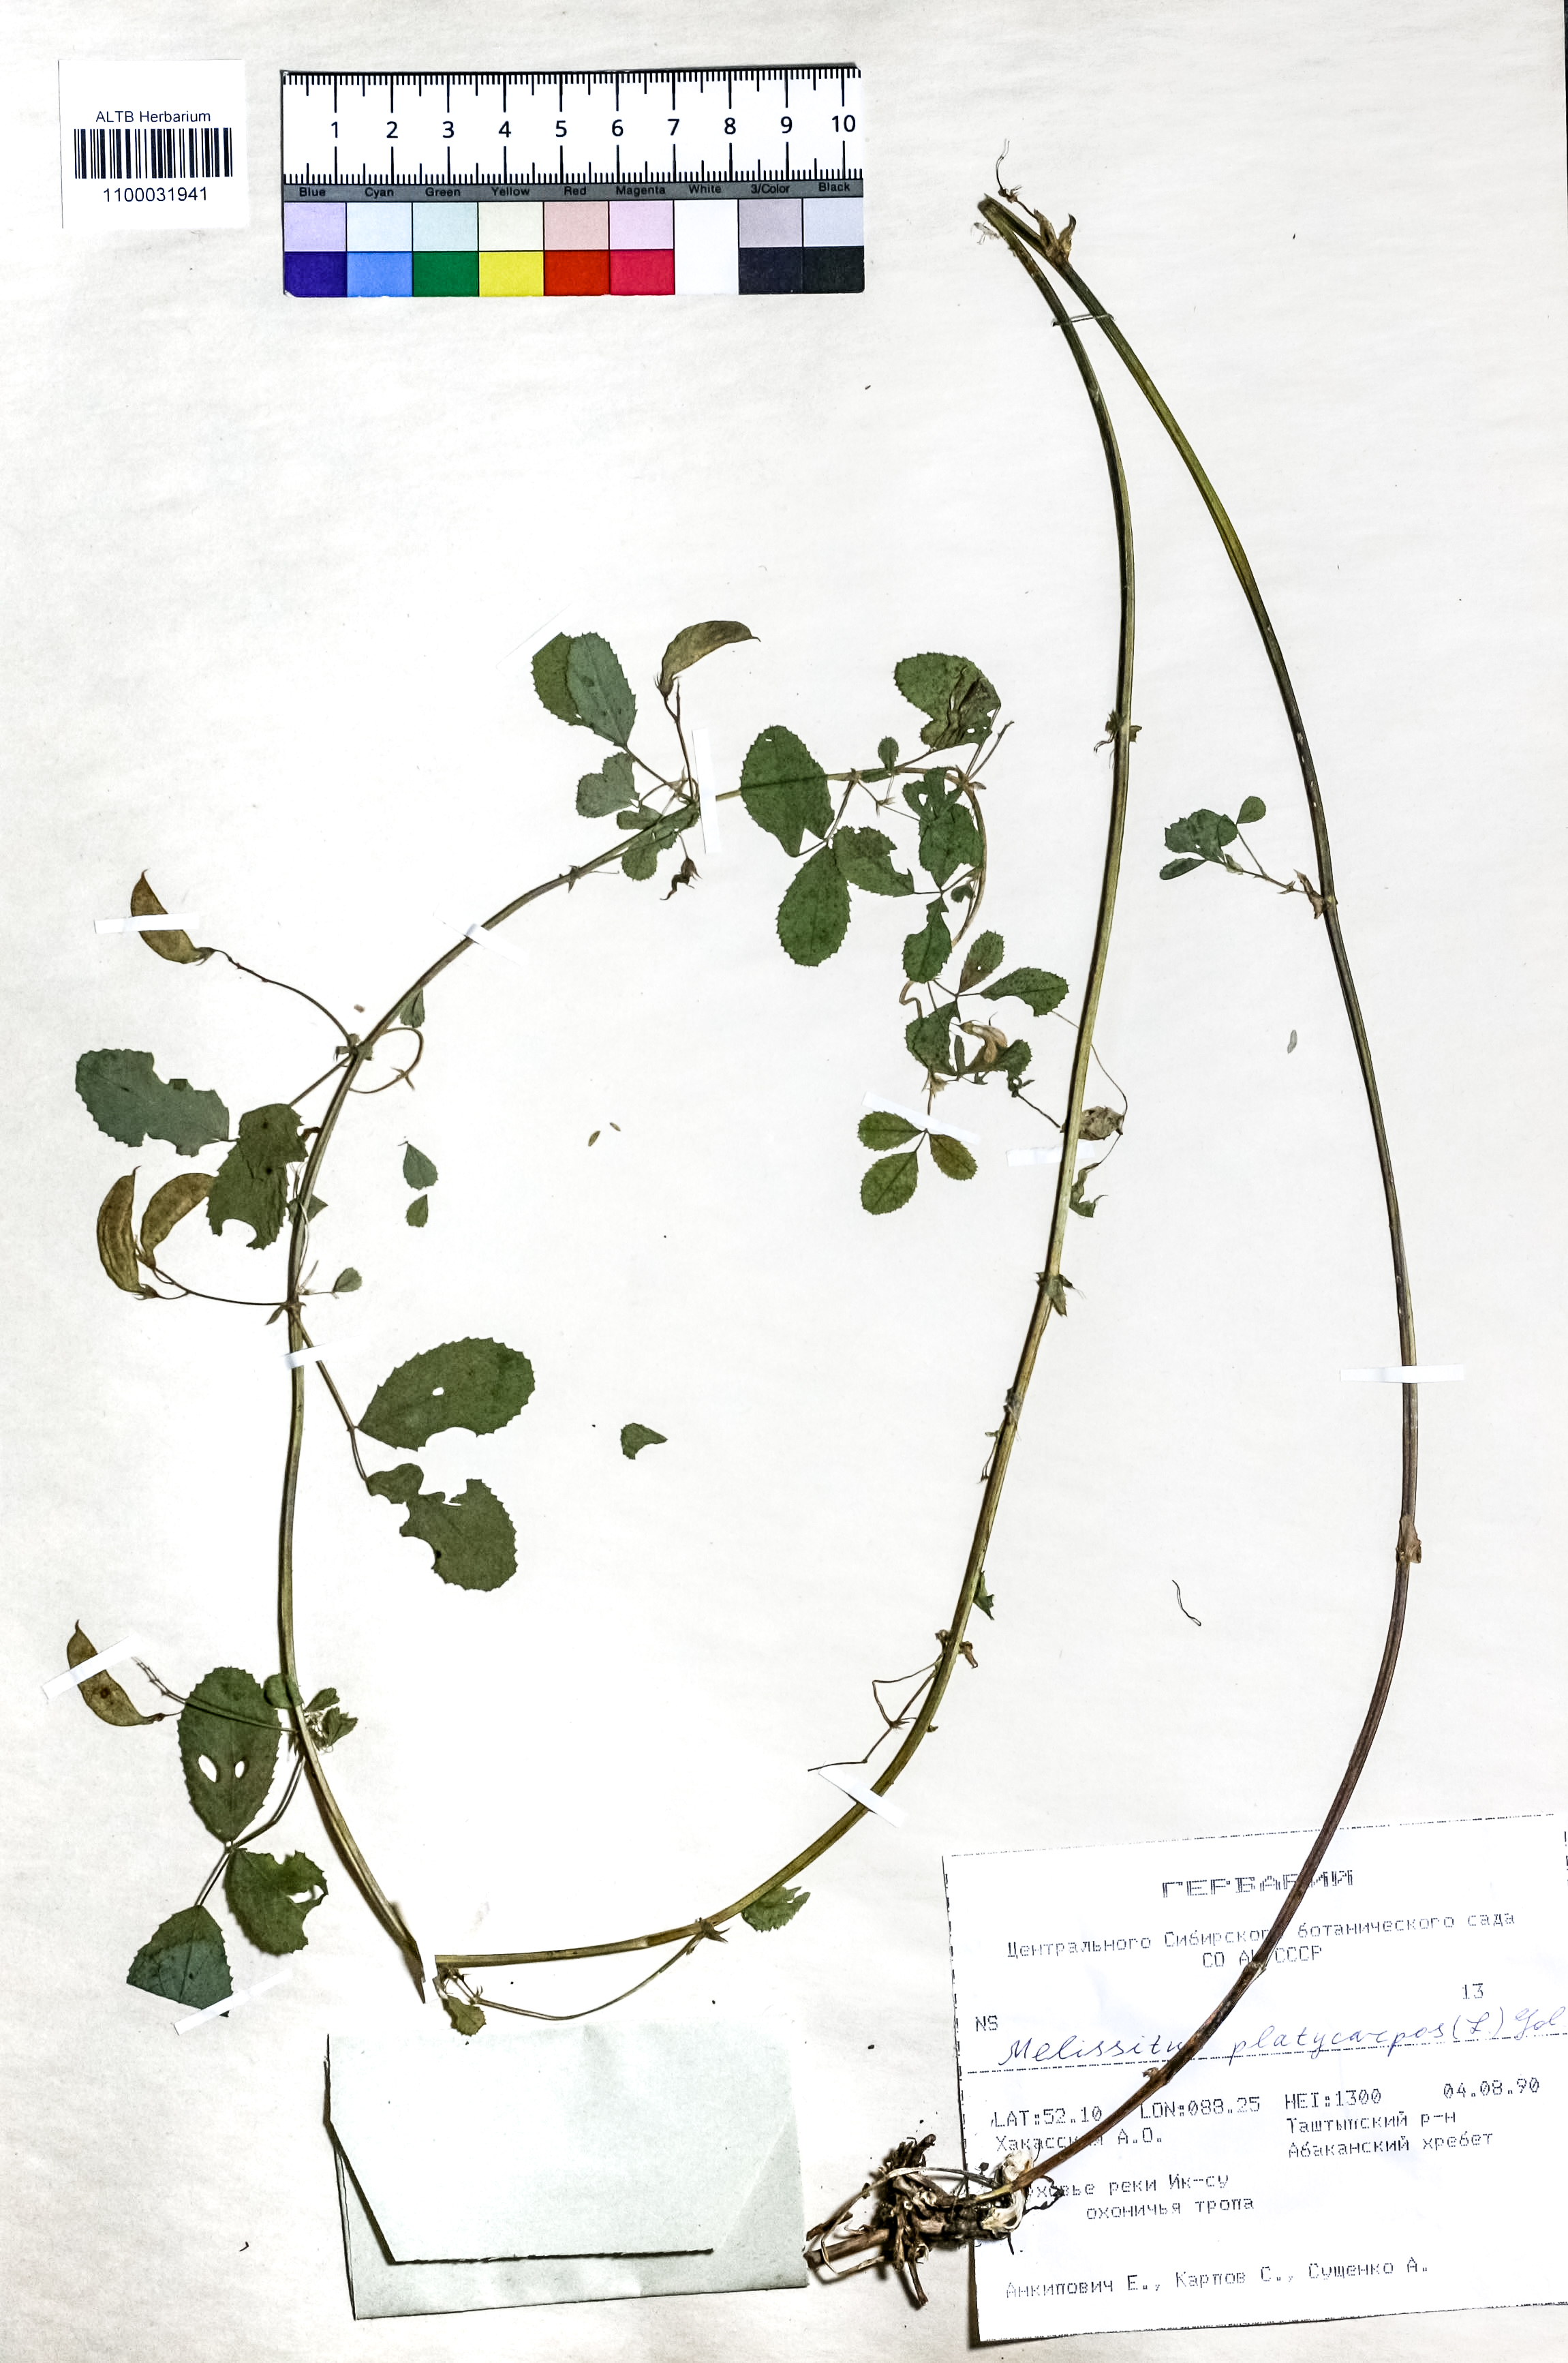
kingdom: Plantae
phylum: Tracheophyta
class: Magnoliopsida
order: Fabales
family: Fabaceae
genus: Medicago
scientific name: Medicago platycarpos
